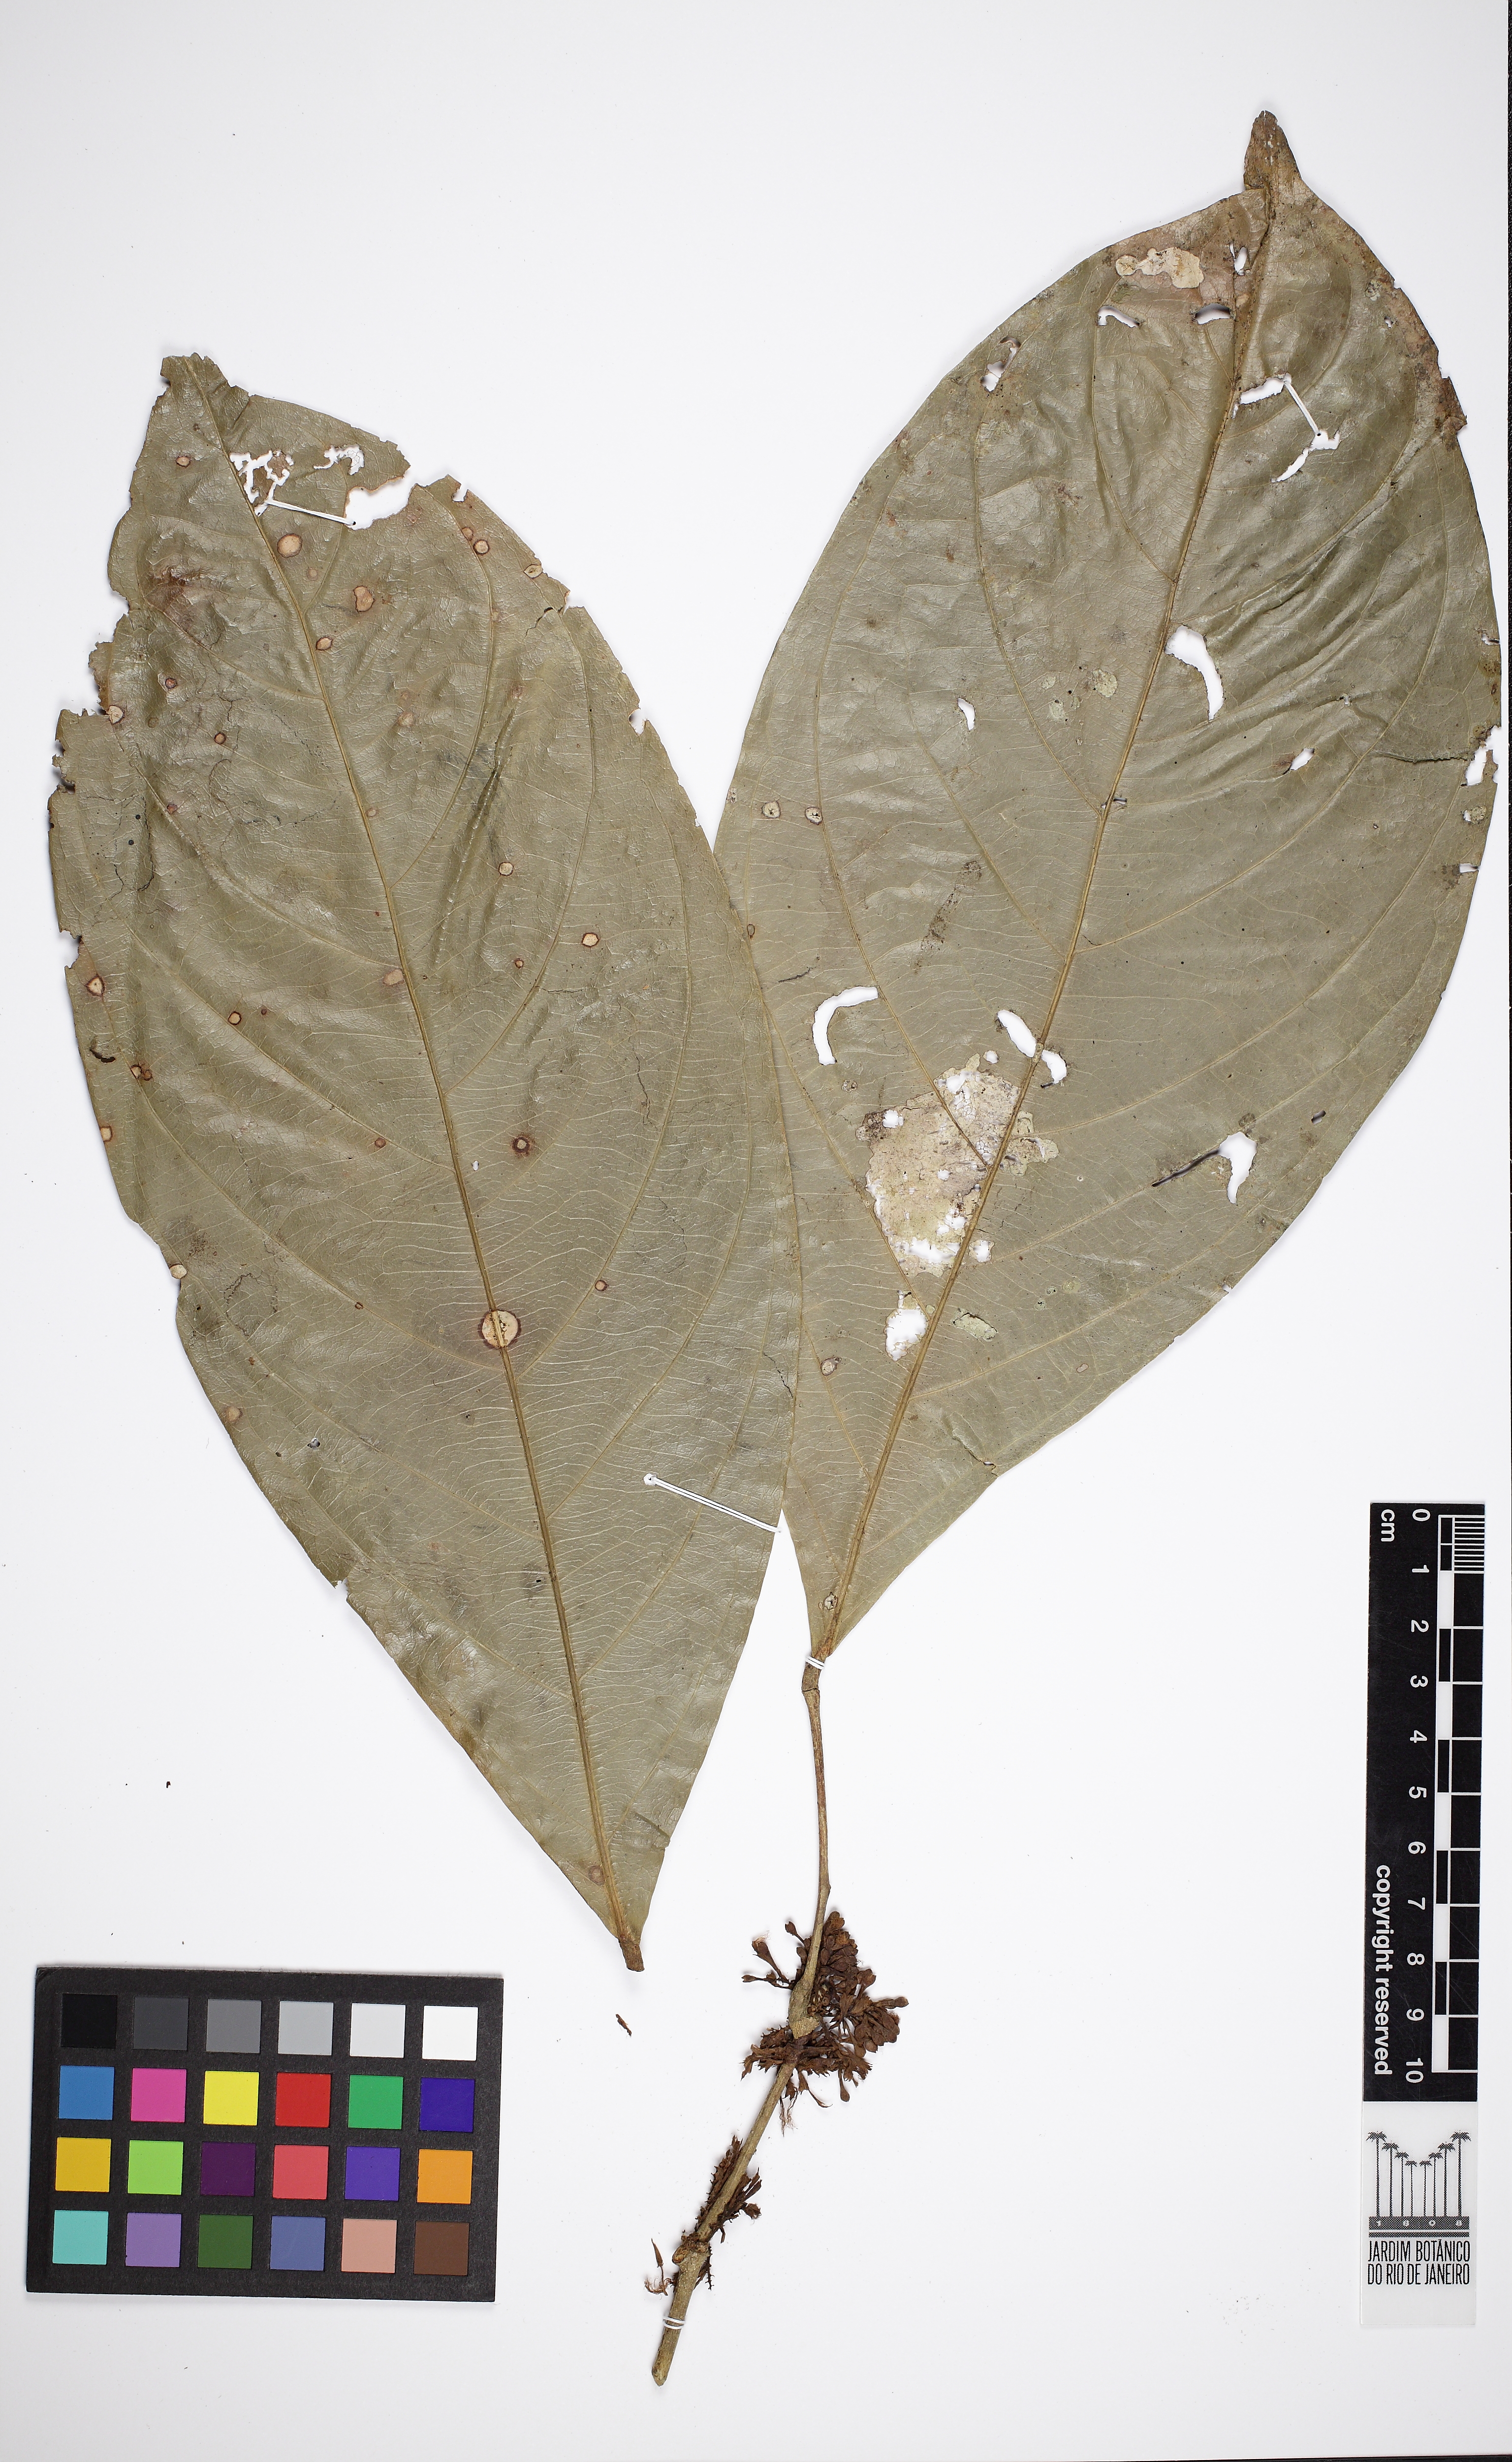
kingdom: Plantae
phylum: Tracheophyta
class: Magnoliopsida
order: Fabales
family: Fabaceae
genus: Inga
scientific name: Inga brachyrhachis
